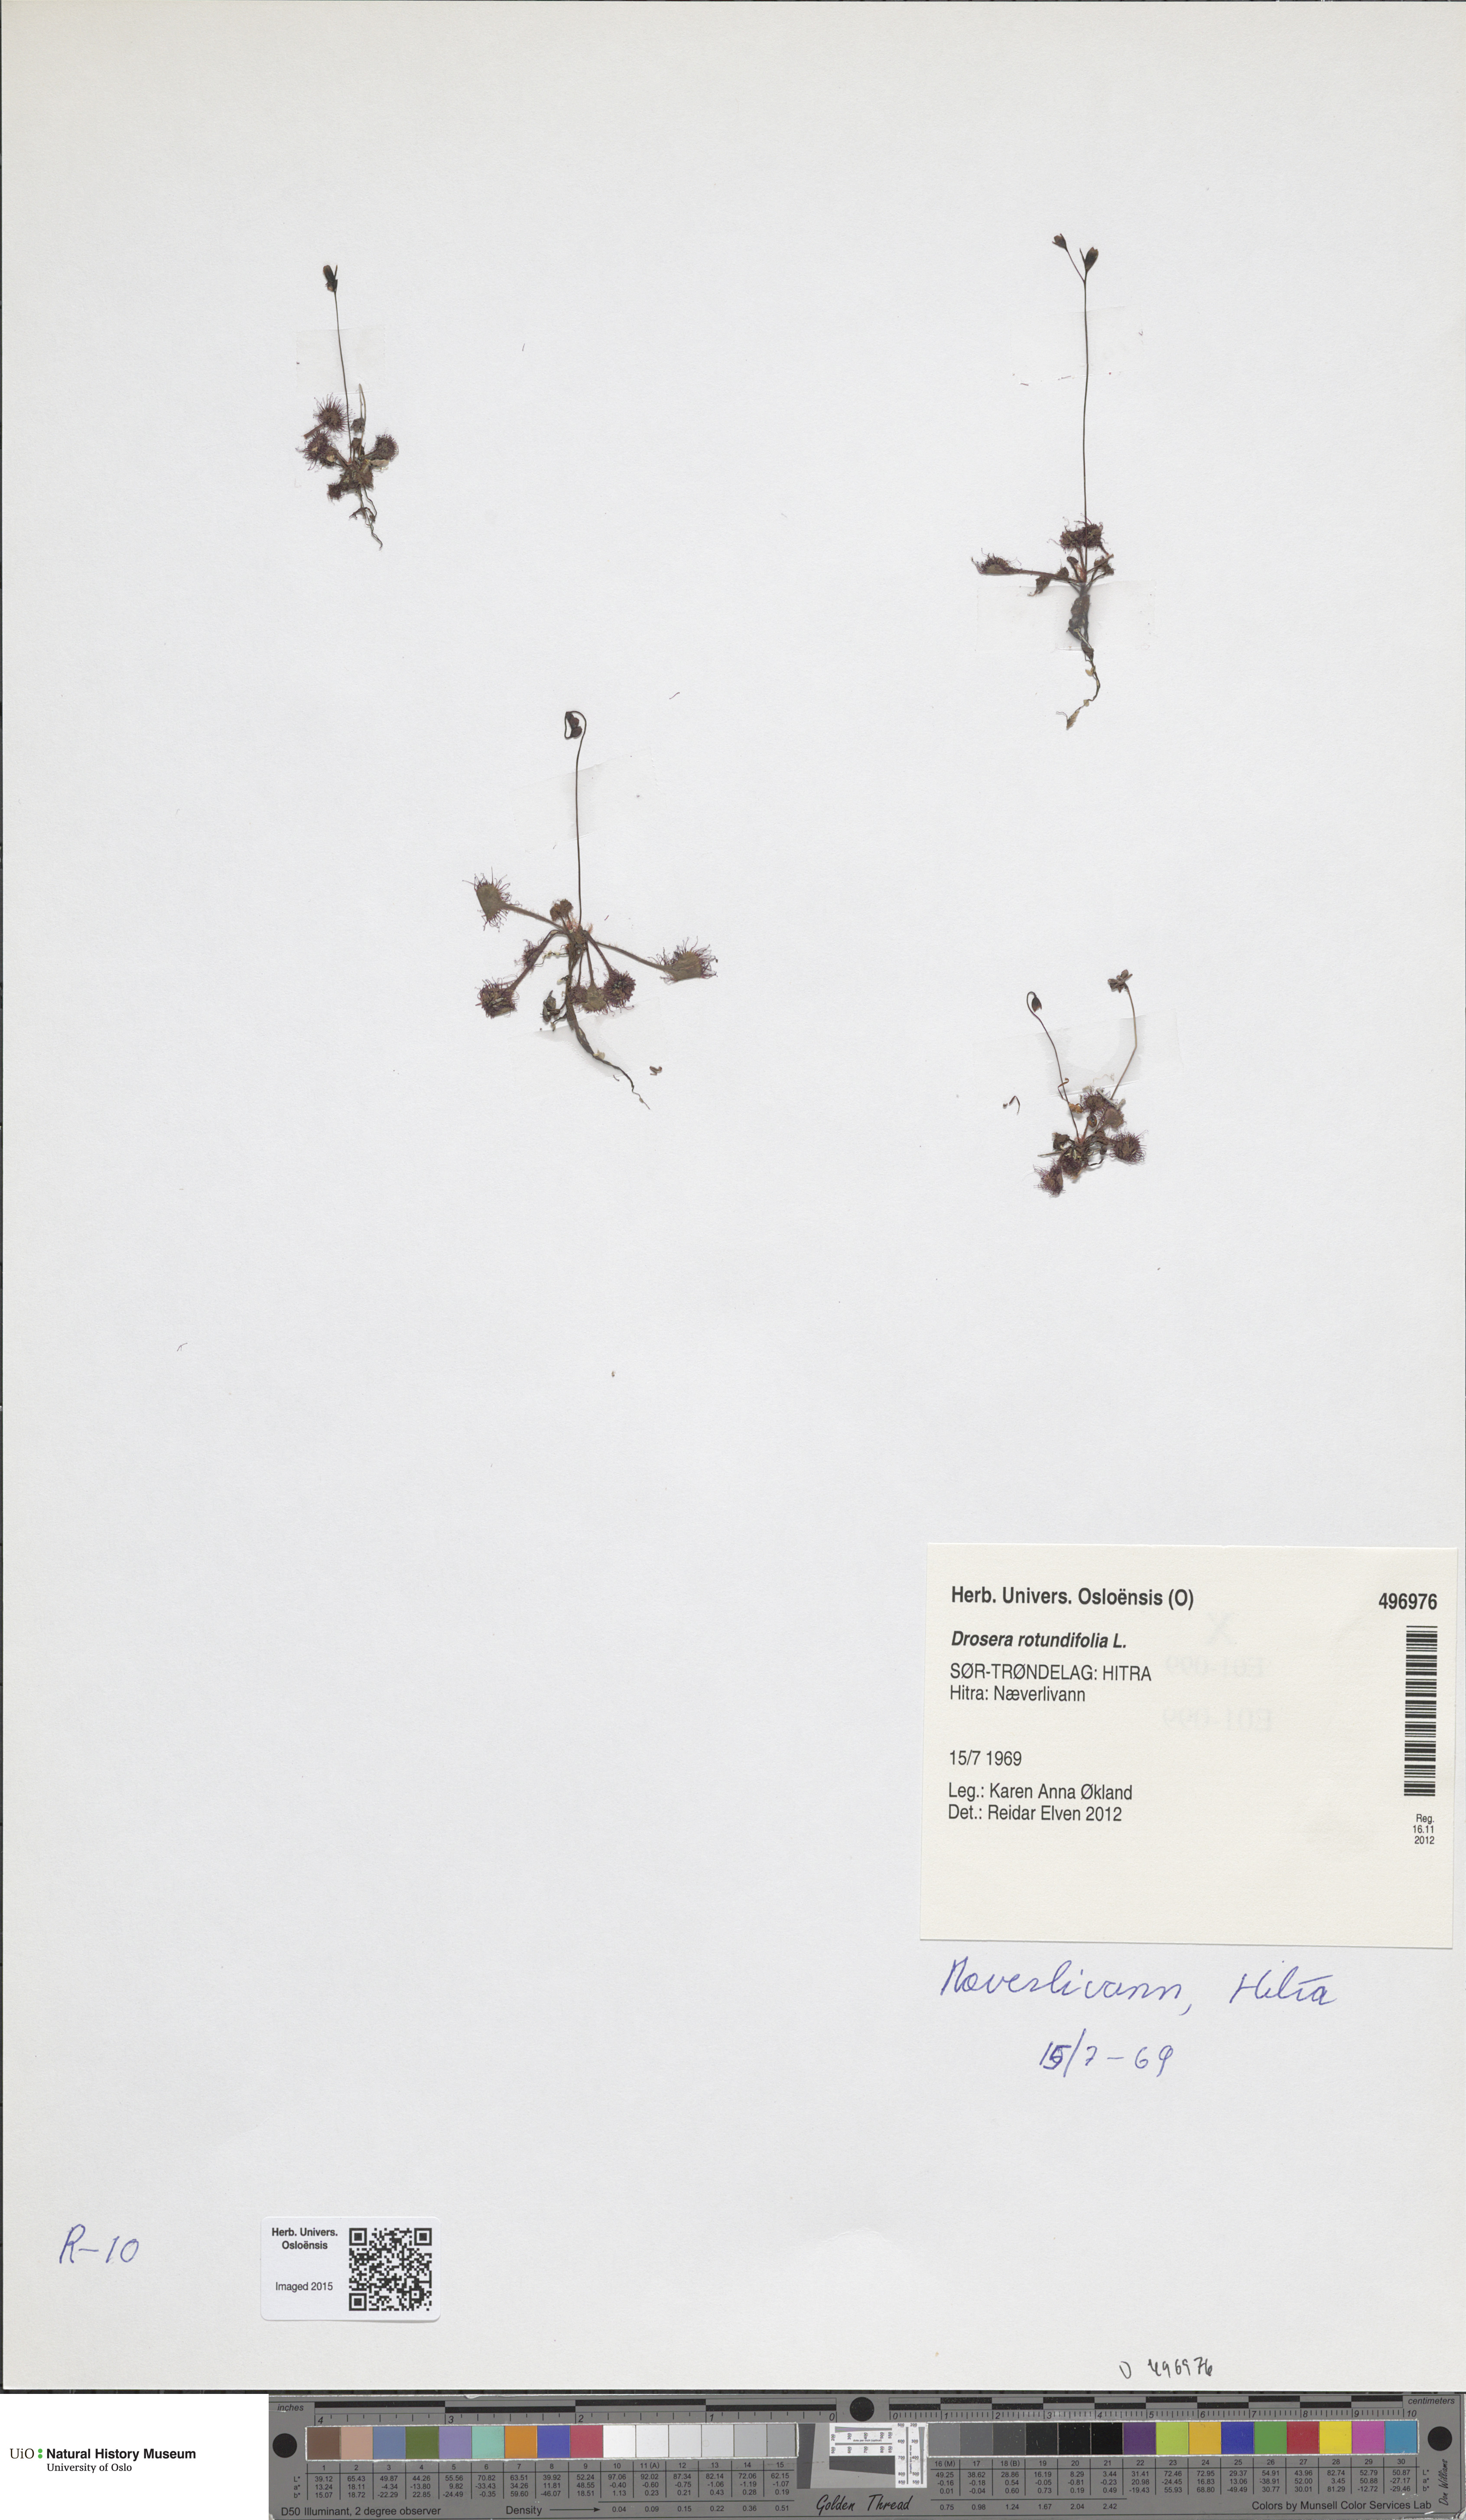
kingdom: Plantae
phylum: Tracheophyta
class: Magnoliopsida
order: Caryophyllales
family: Droseraceae
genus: Drosera
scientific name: Drosera rotundifolia
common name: Round-leaved sundew
